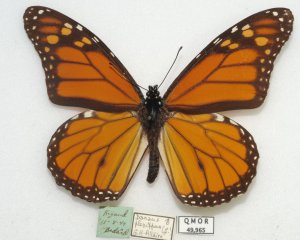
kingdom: Animalia
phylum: Arthropoda
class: Insecta
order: Lepidoptera
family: Nymphalidae
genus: Danaus
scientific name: Danaus plexippus
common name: Monarch
